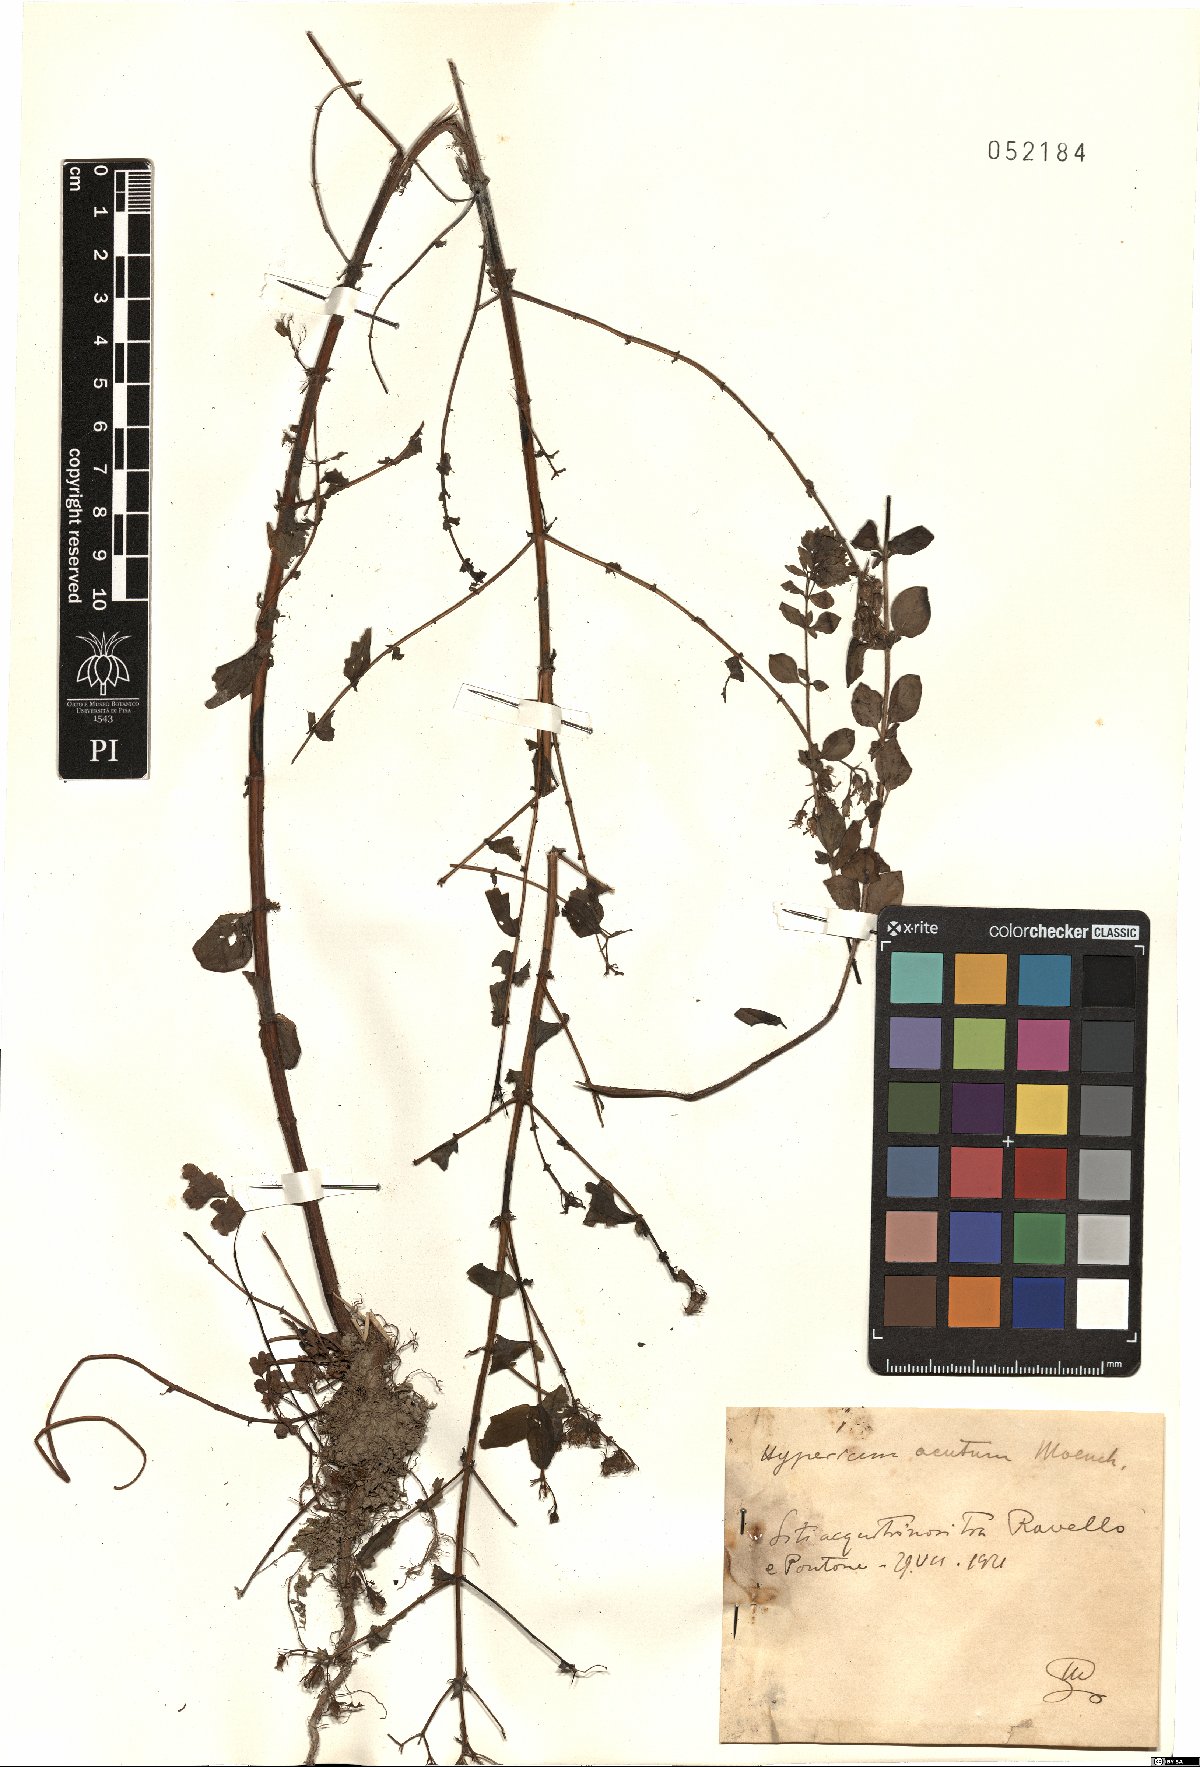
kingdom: Plantae
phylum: Tracheophyta
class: Magnoliopsida
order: Malpighiales
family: Hypericaceae
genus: Hypericum
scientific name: Hypericum tetrapterum
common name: Square-stalked st. john's-wort
